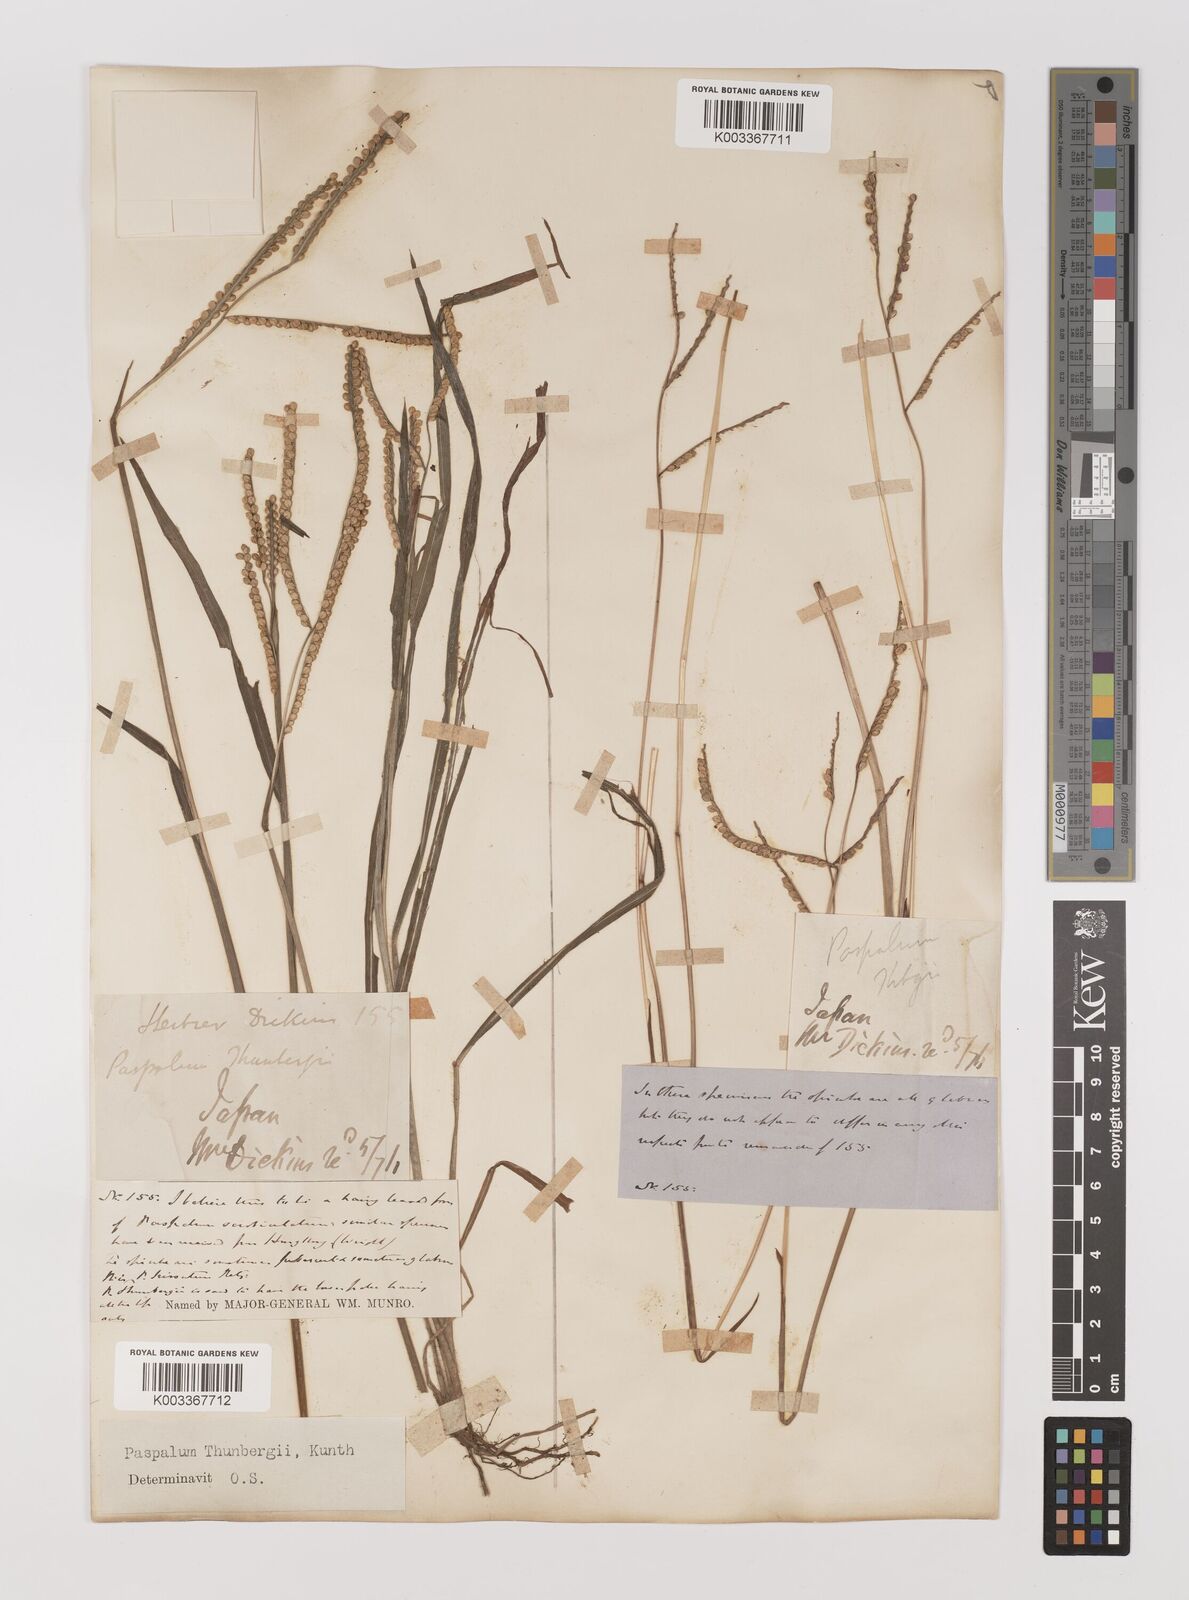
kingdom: Plantae
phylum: Tracheophyta
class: Liliopsida
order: Poales
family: Poaceae
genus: Panicum
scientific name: Panicum
